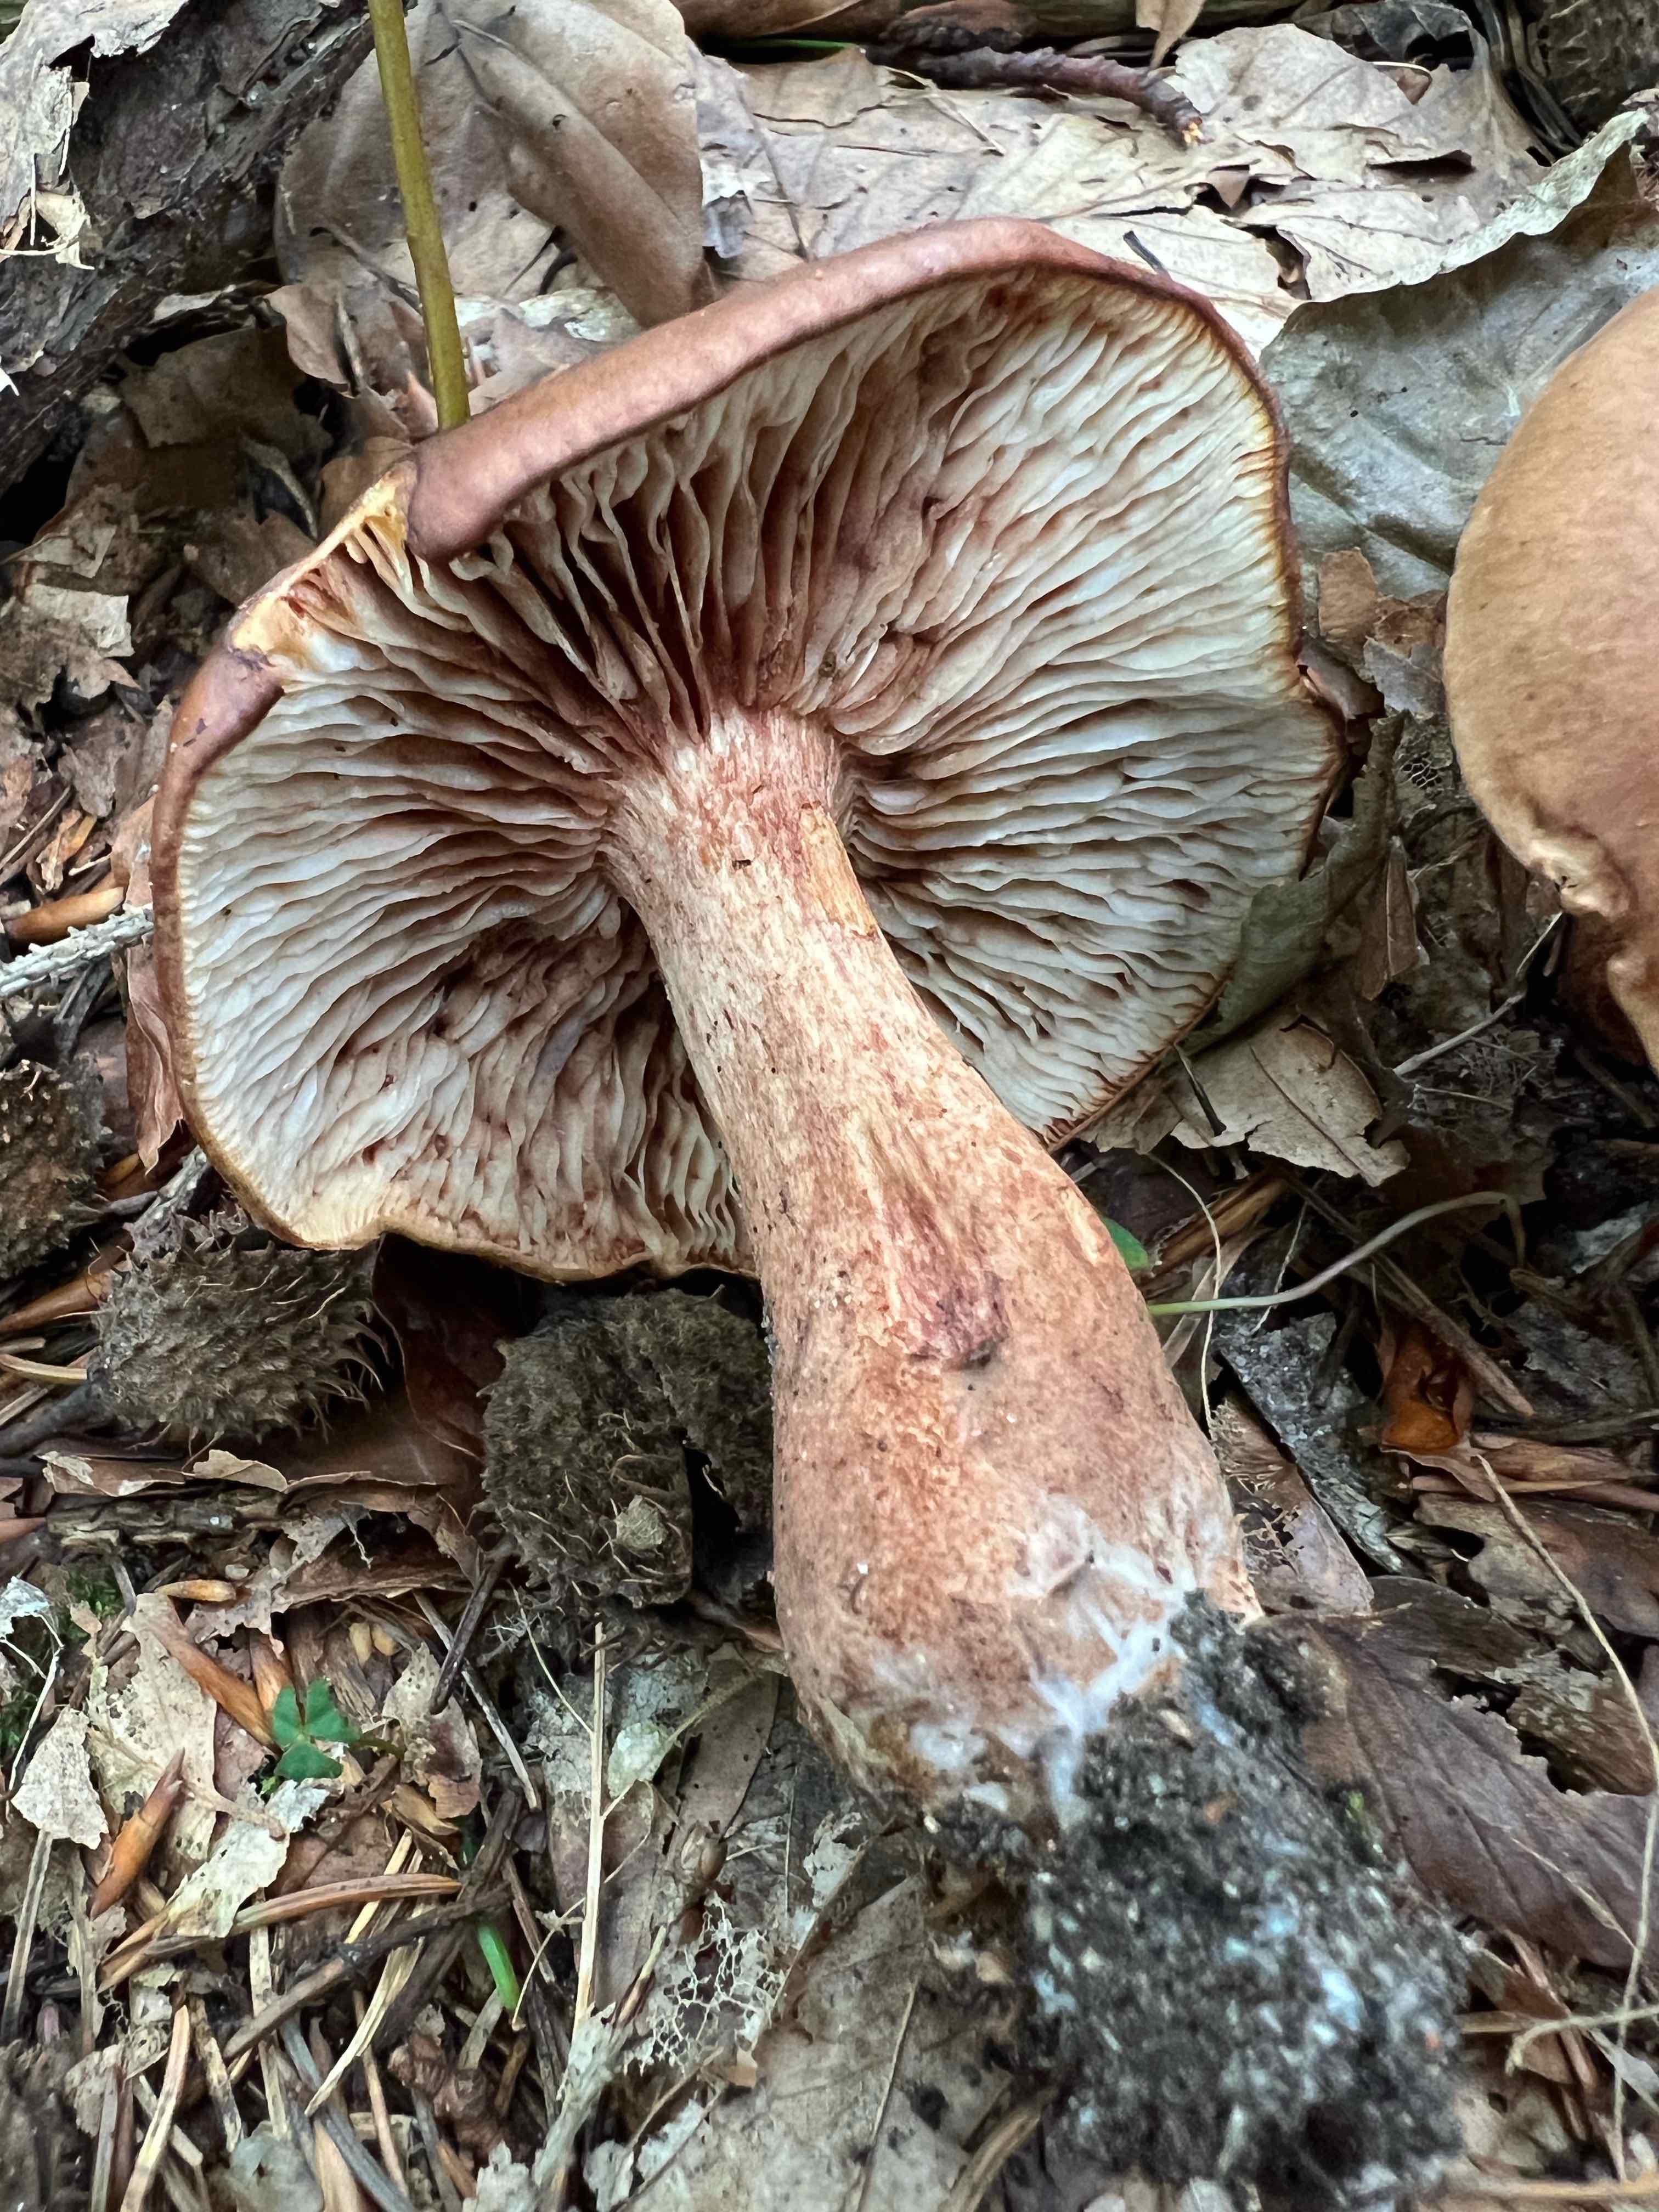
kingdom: Fungi
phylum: Basidiomycota
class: Agaricomycetes
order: Agaricales
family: Tricholomataceae
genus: Tricholoma
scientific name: Tricholoma ustale
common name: sveden ridderhat
